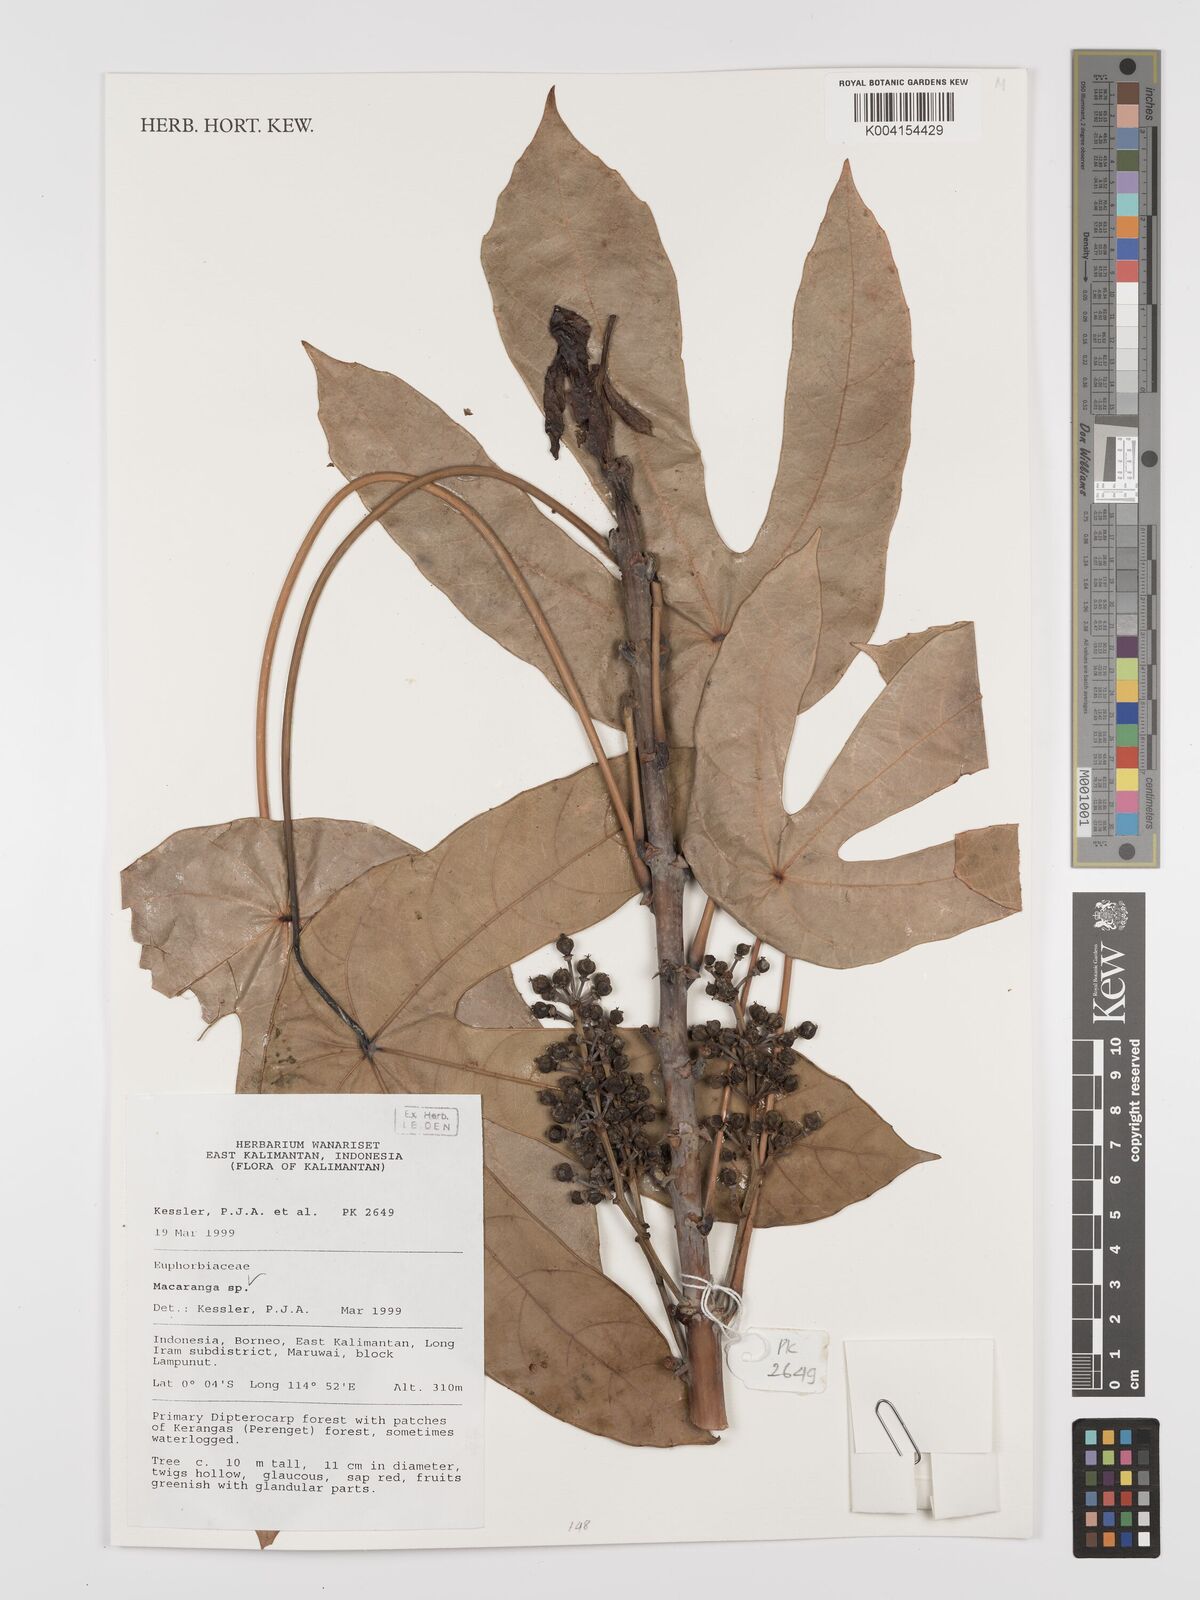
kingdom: Plantae
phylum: Tracheophyta
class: Magnoliopsida
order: Malpighiales
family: Euphorbiaceae
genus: Macaranga
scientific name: Macaranga
